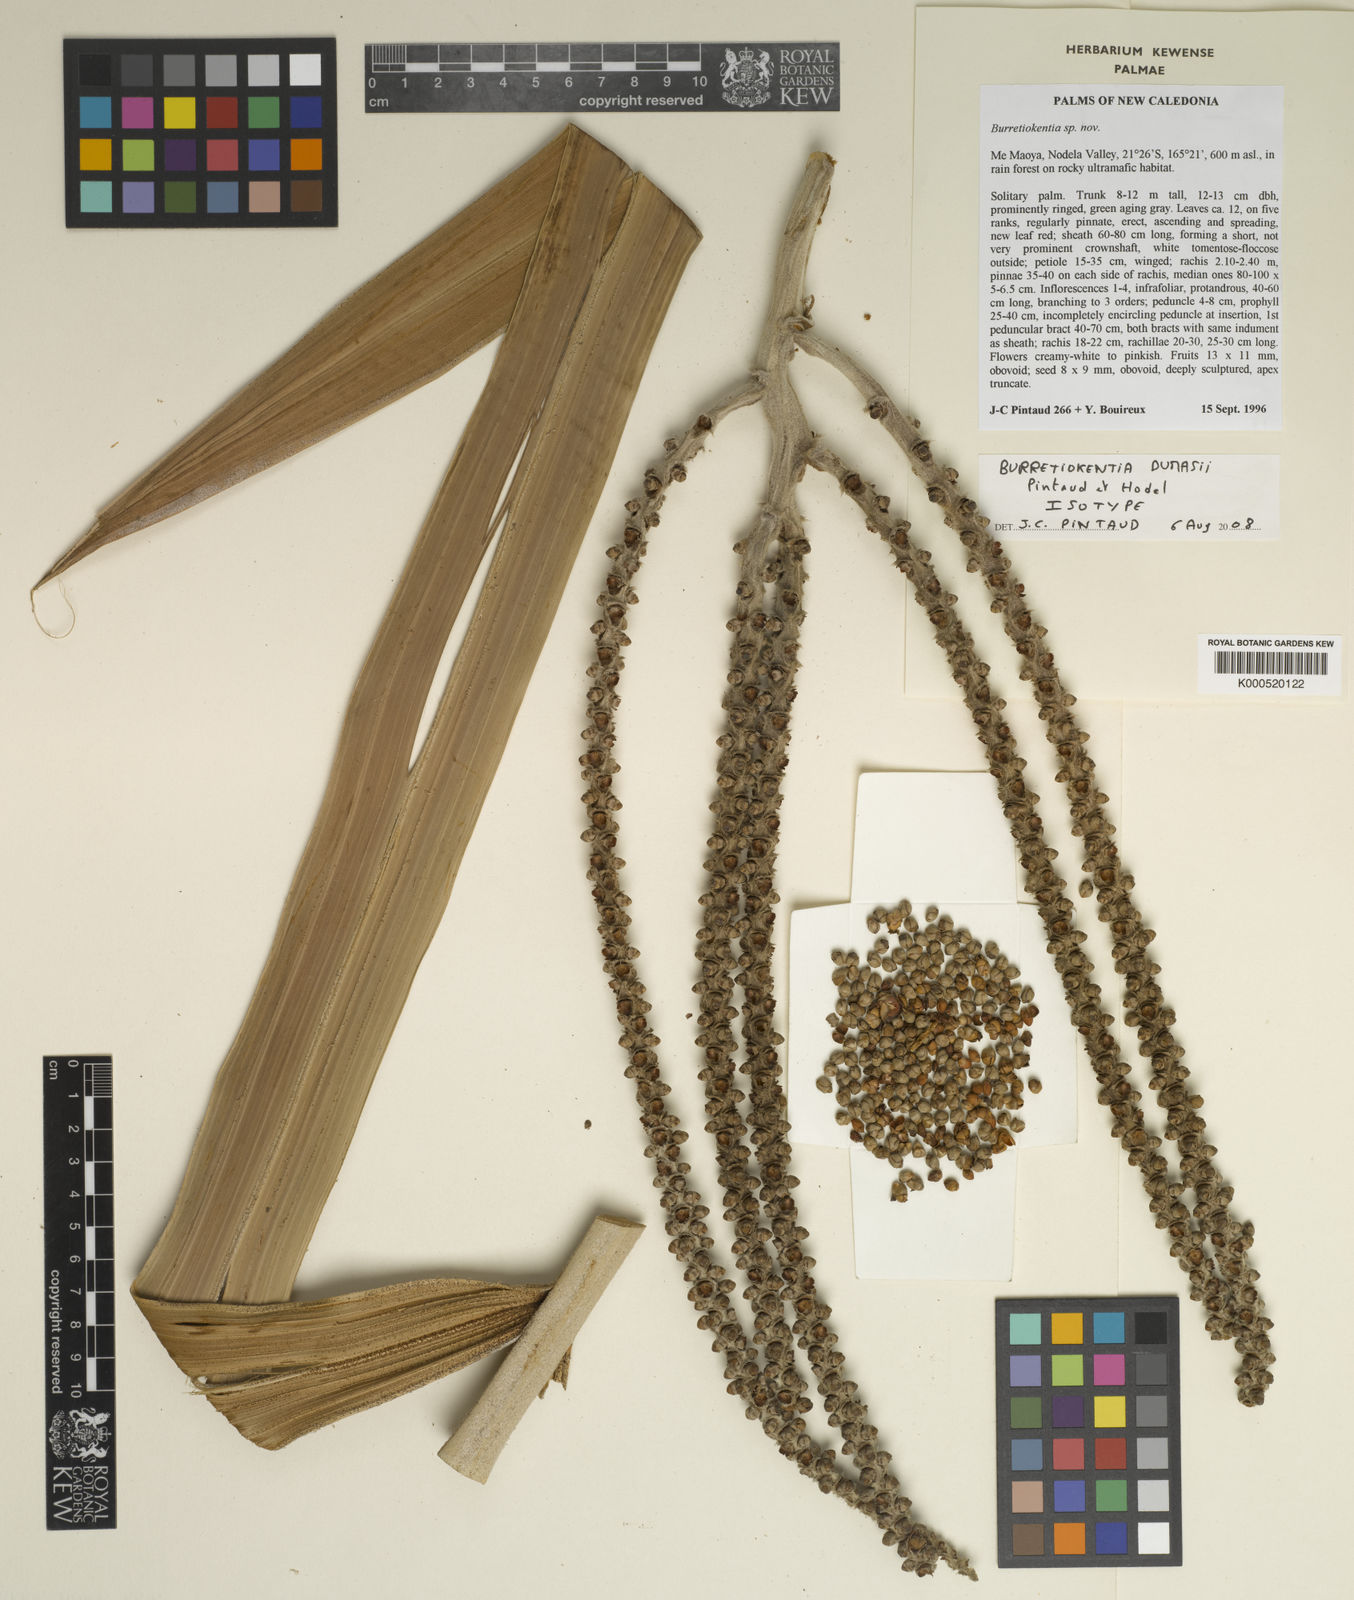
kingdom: Plantae
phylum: Tracheophyta
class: Liliopsida
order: Arecales
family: Arecaceae
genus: Burretiokentia
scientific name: Burretiokentia dumasii
